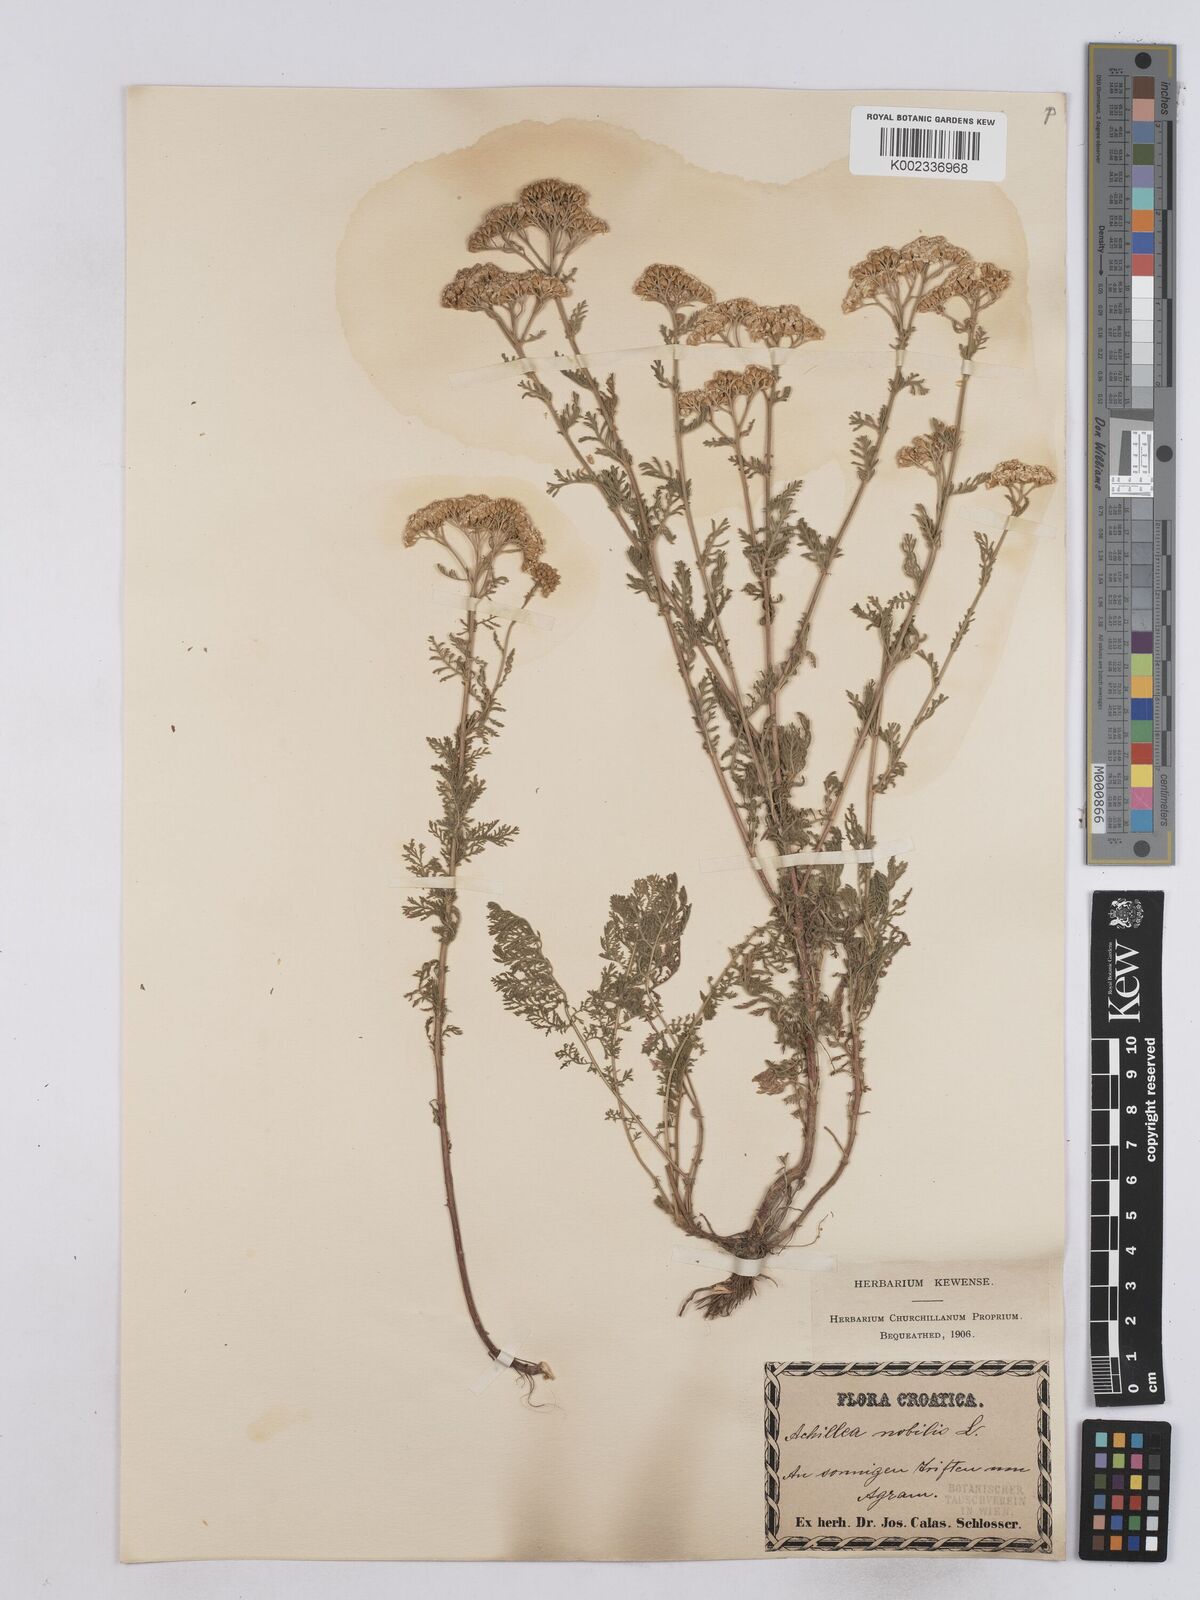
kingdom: Plantae
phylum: Tracheophyta
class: Magnoliopsida
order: Asterales
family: Asteraceae
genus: Achillea
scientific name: Achillea nobilis
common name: Noble yarrow
